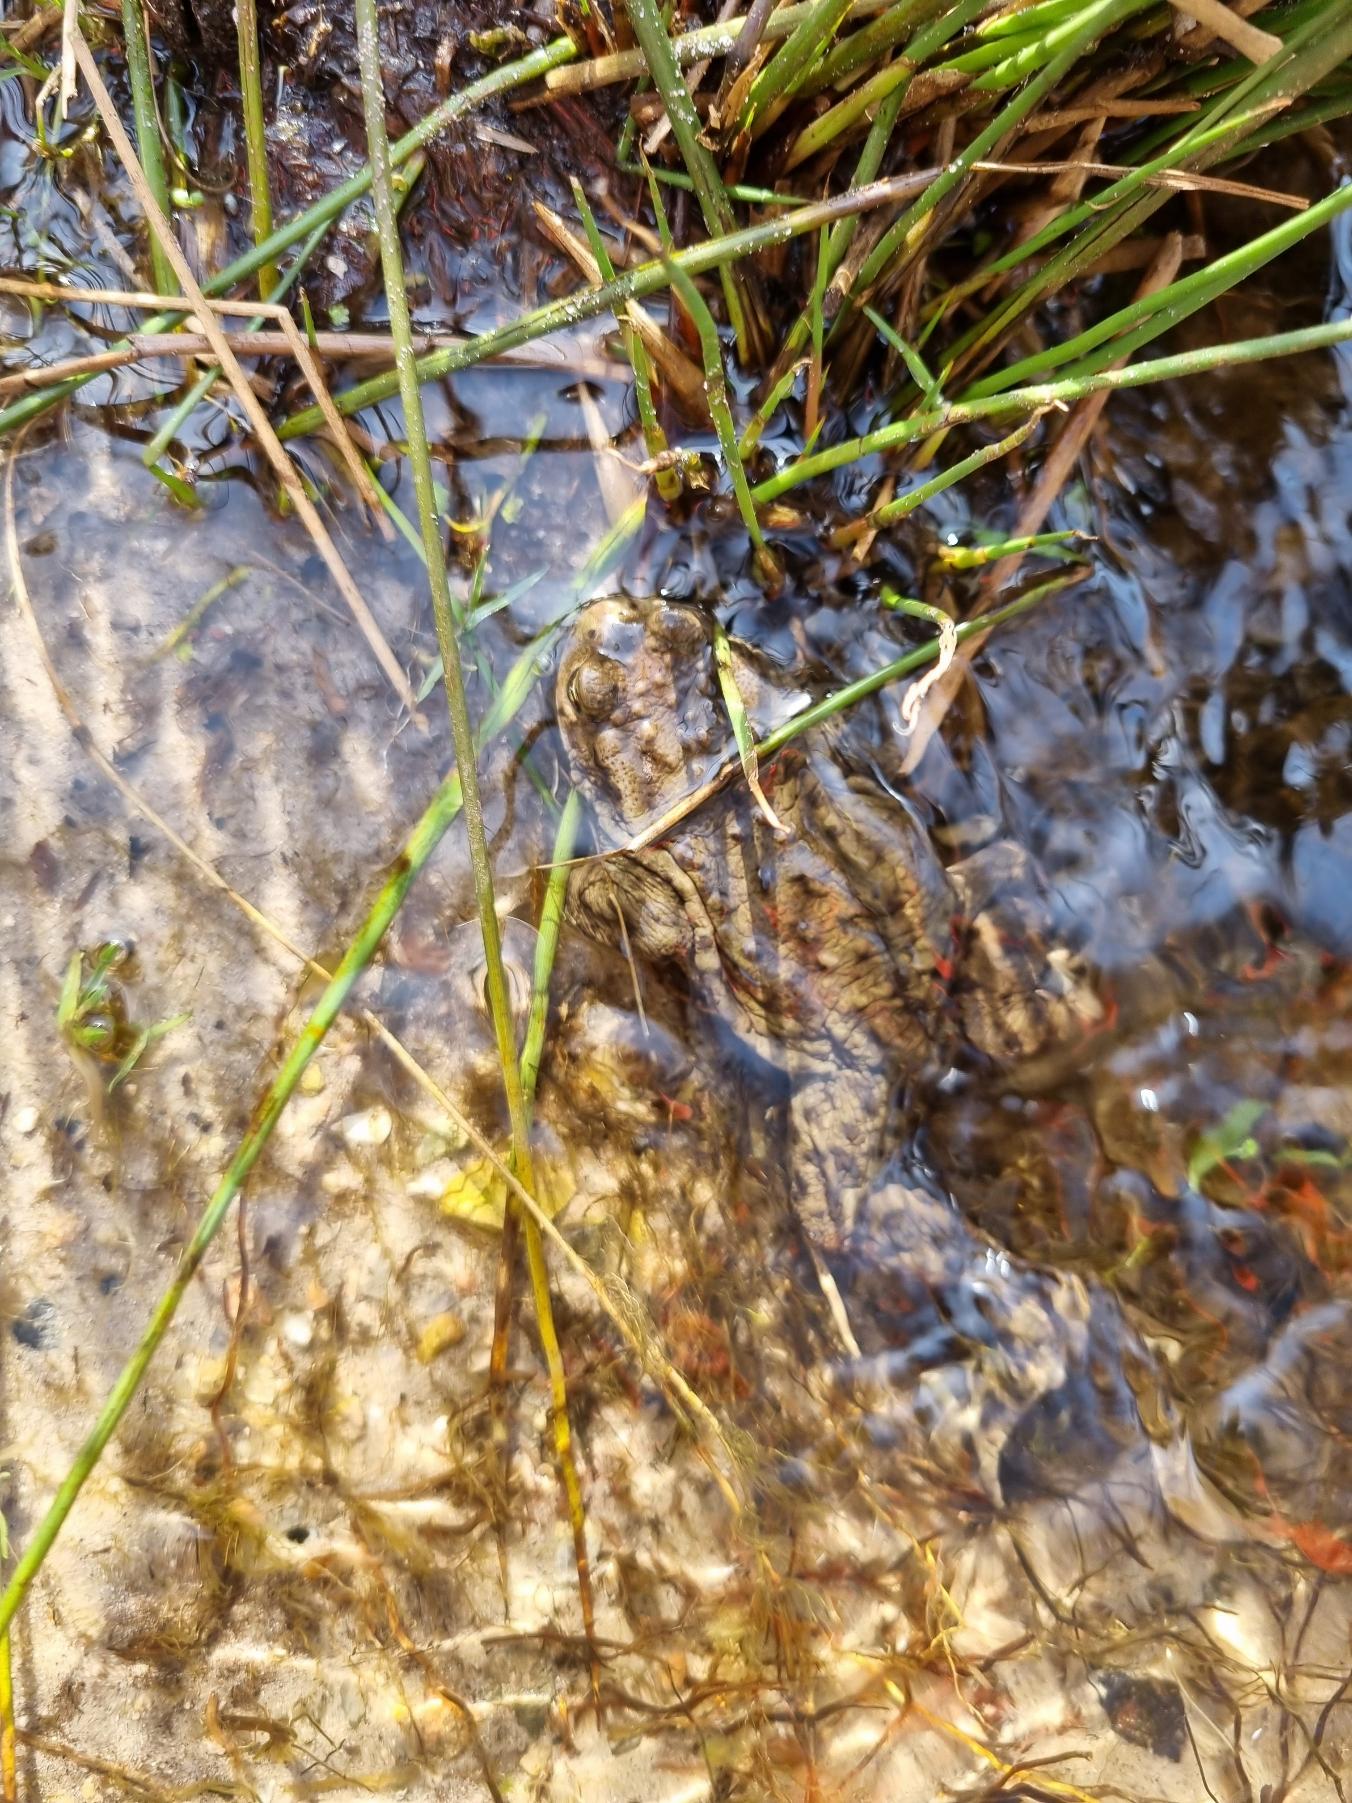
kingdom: Animalia
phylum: Chordata
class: Amphibia
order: Anura
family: Bufonidae
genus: Bufo
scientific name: Bufo bufo
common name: Skrubtudse
